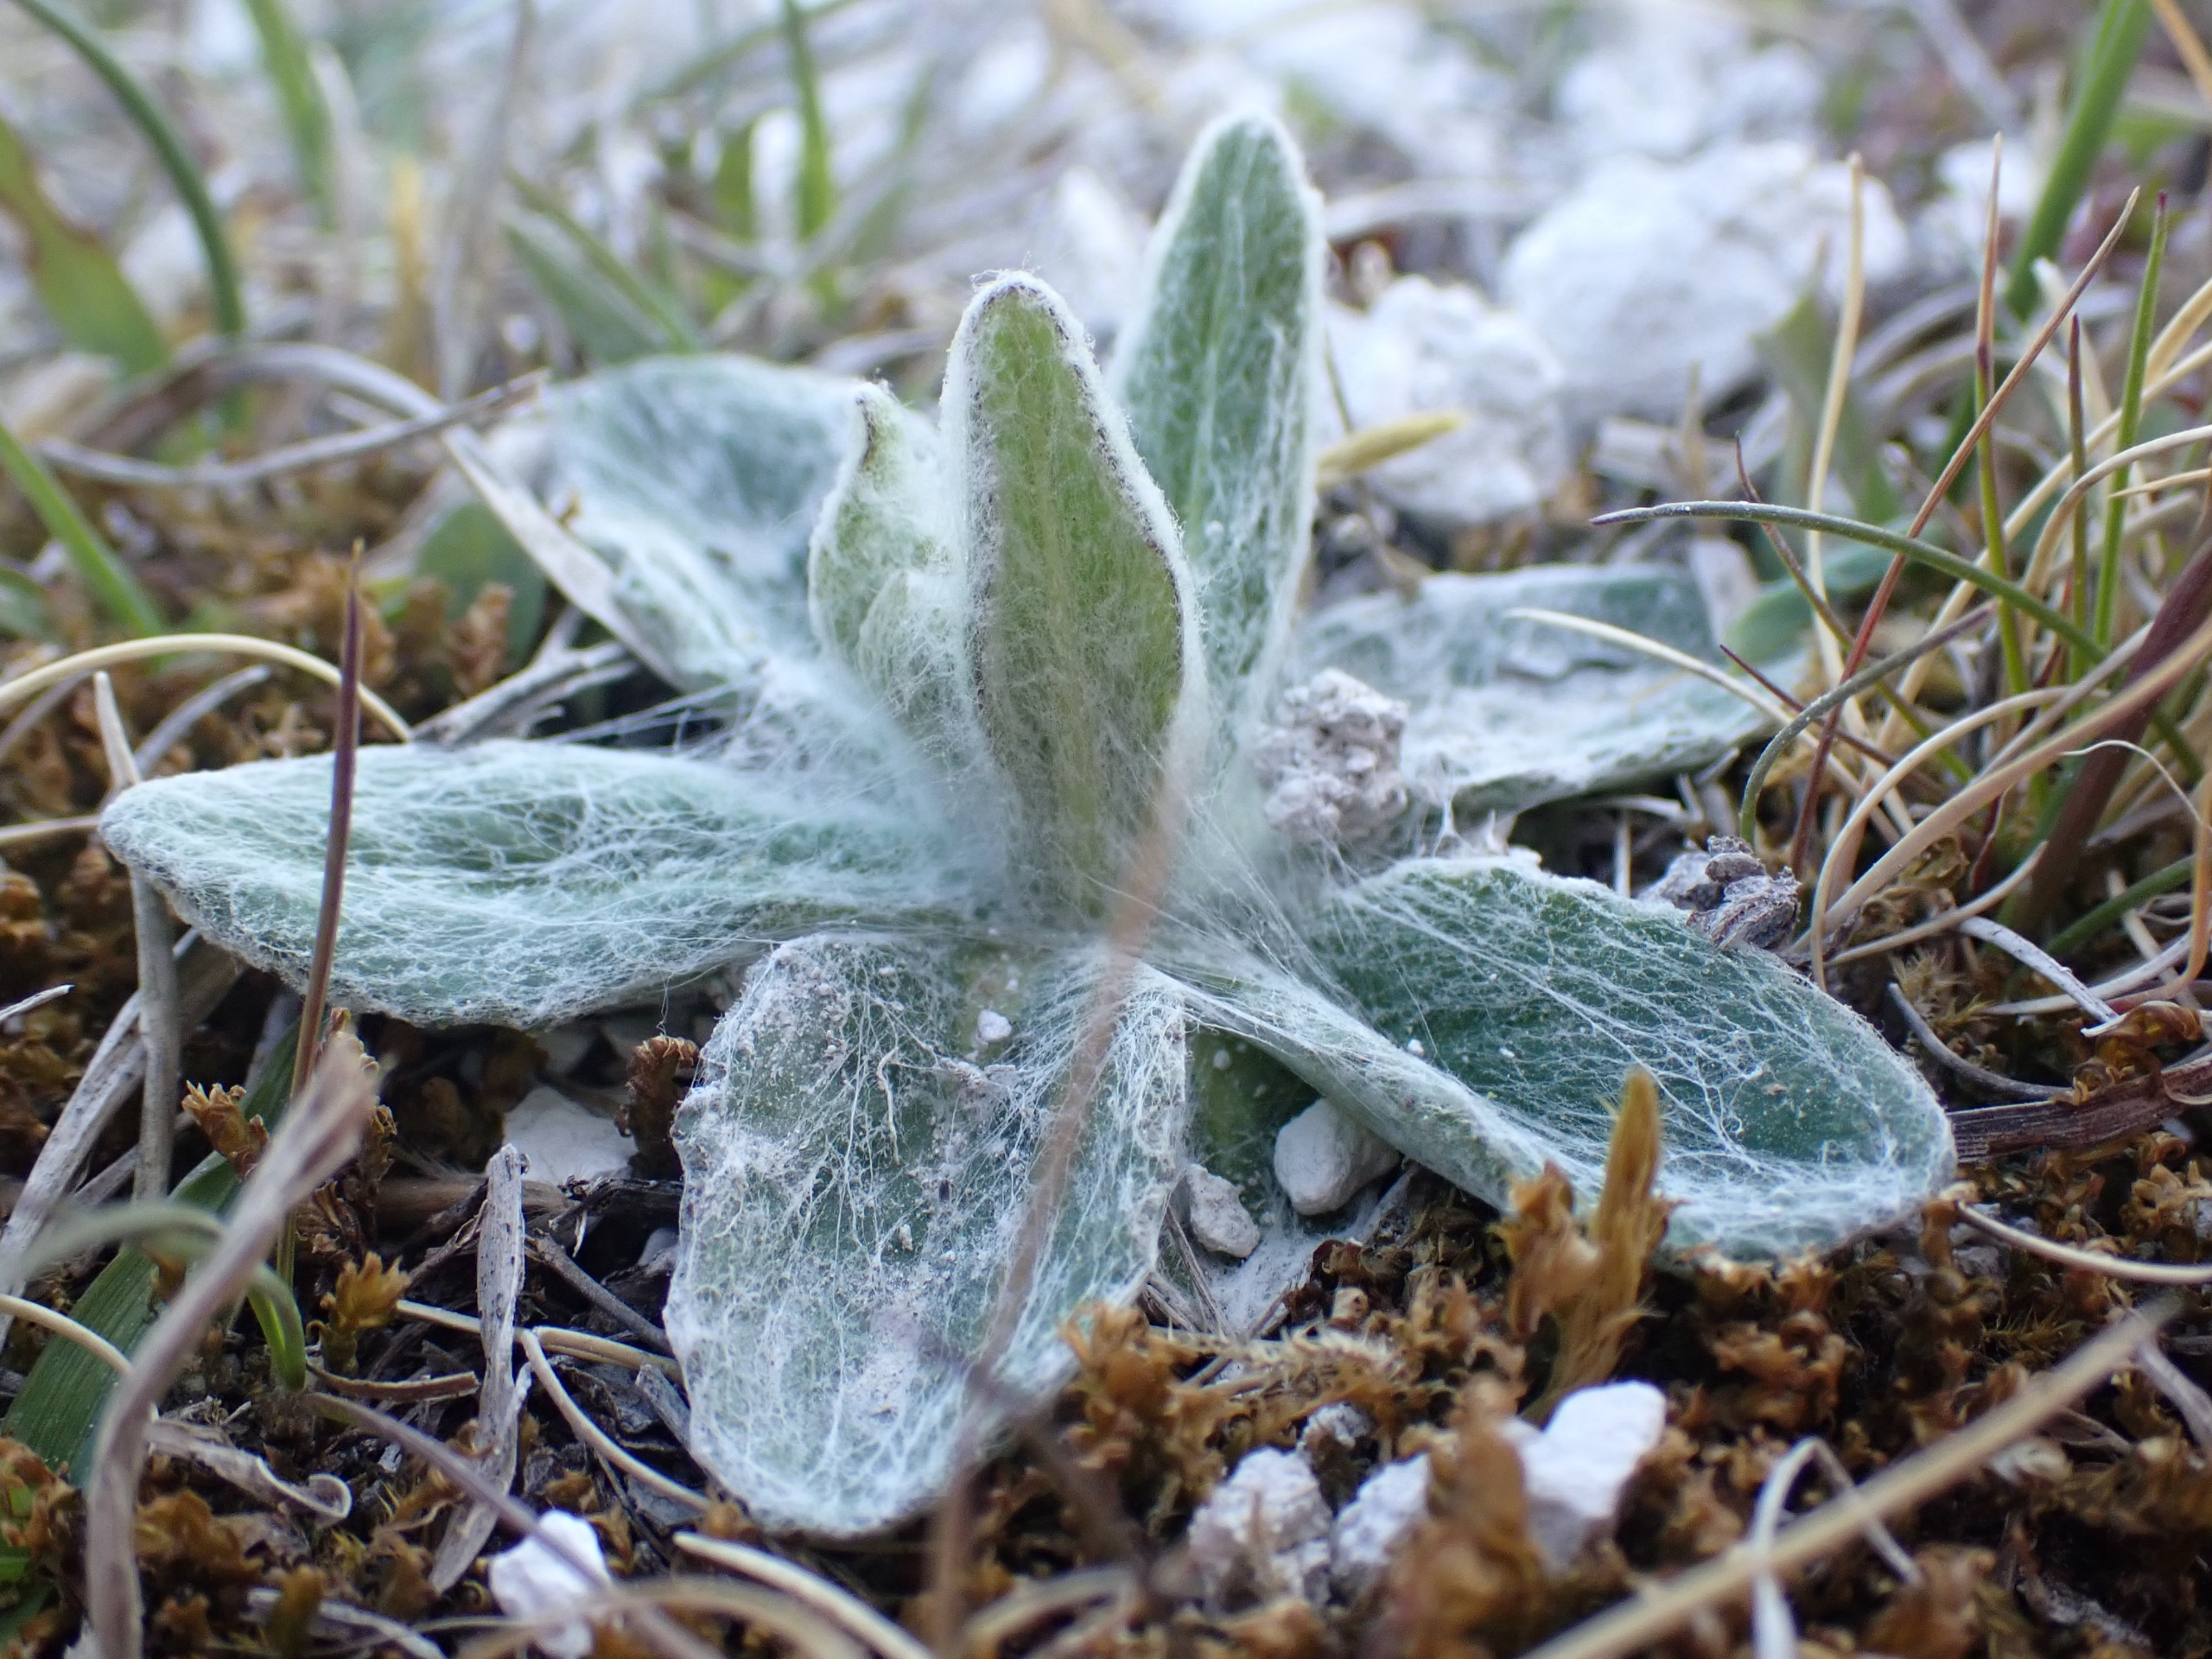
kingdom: Plantae
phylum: Tracheophyta
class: Magnoliopsida
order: Asterales
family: Asteraceae
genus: Tephroseris
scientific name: Tephroseris integrifolia
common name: Bakke-fnokurt
